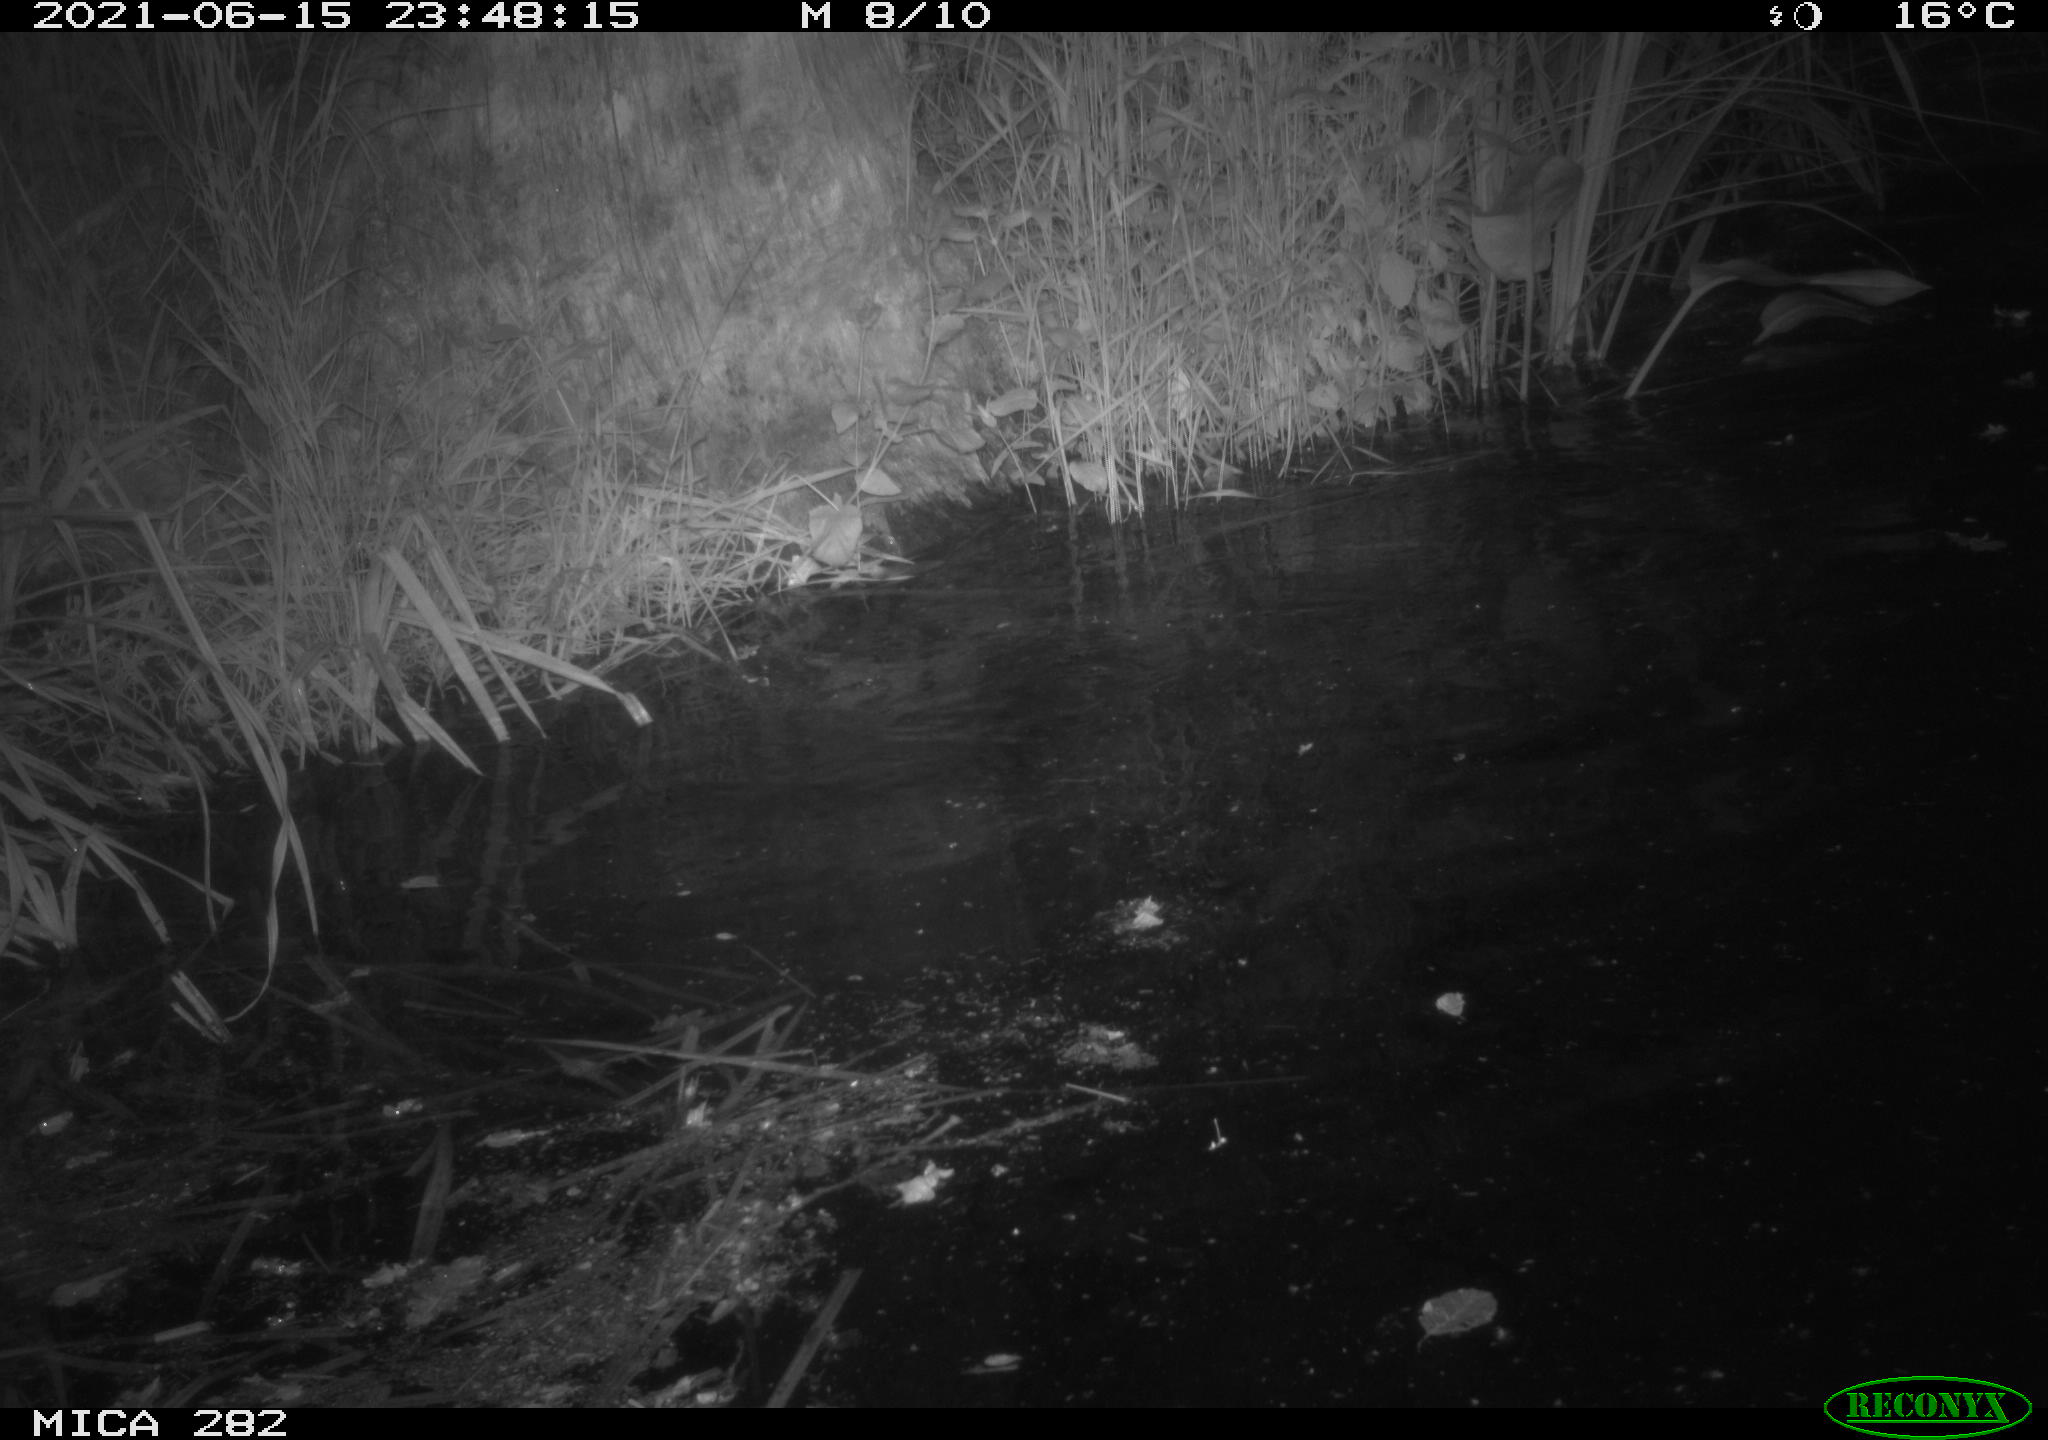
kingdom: Animalia
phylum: Chordata
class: Mammalia
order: Rodentia
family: Castoridae
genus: Castor
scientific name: Castor fiber
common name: Eurasian beaver
